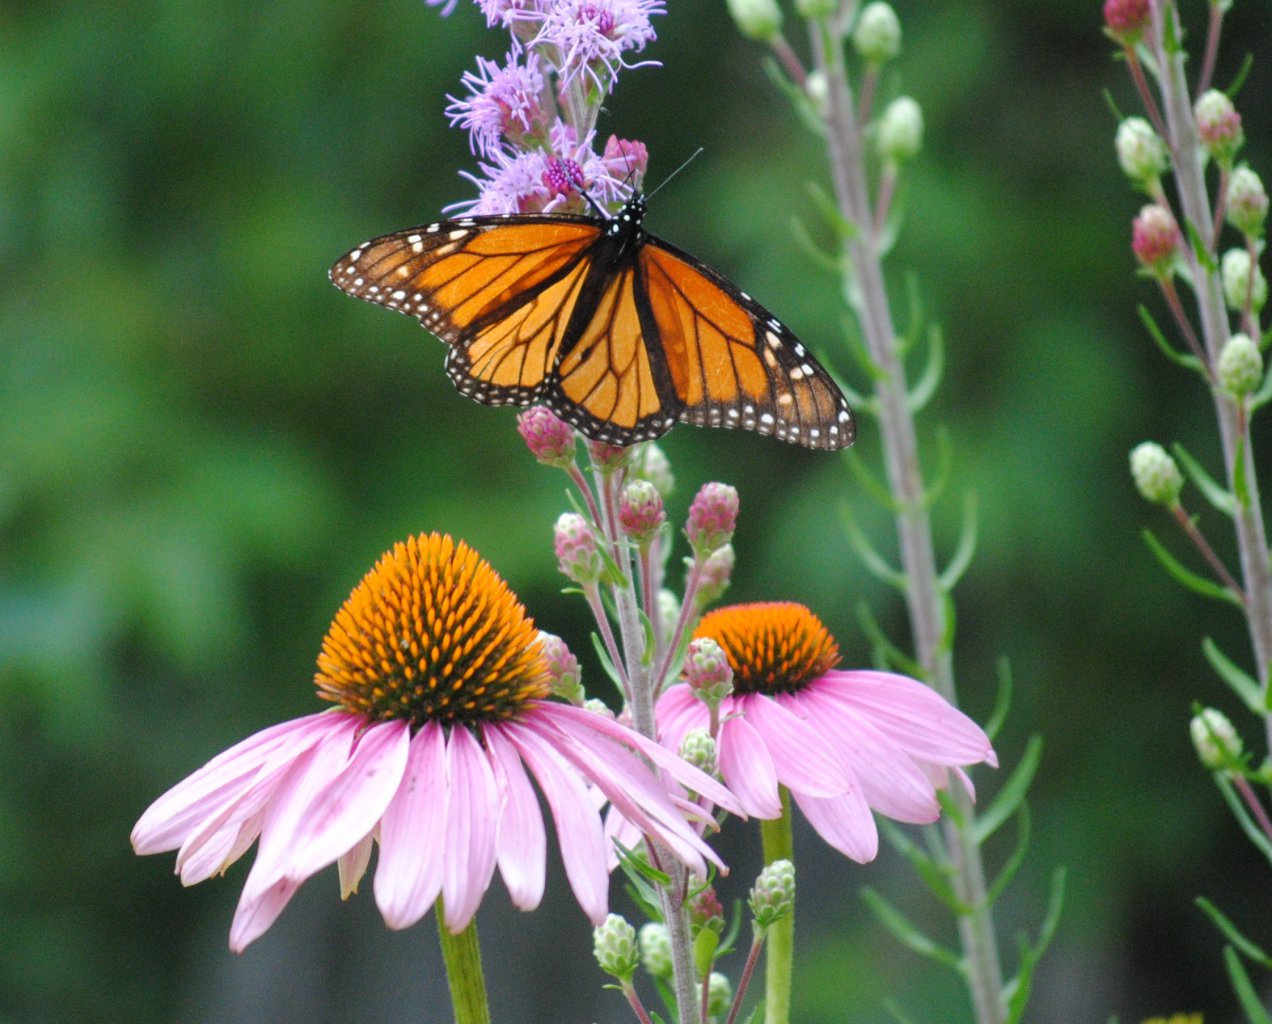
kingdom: Animalia
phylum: Arthropoda
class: Insecta
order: Lepidoptera
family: Nymphalidae
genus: Danaus
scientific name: Danaus plexippus
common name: Monarch
